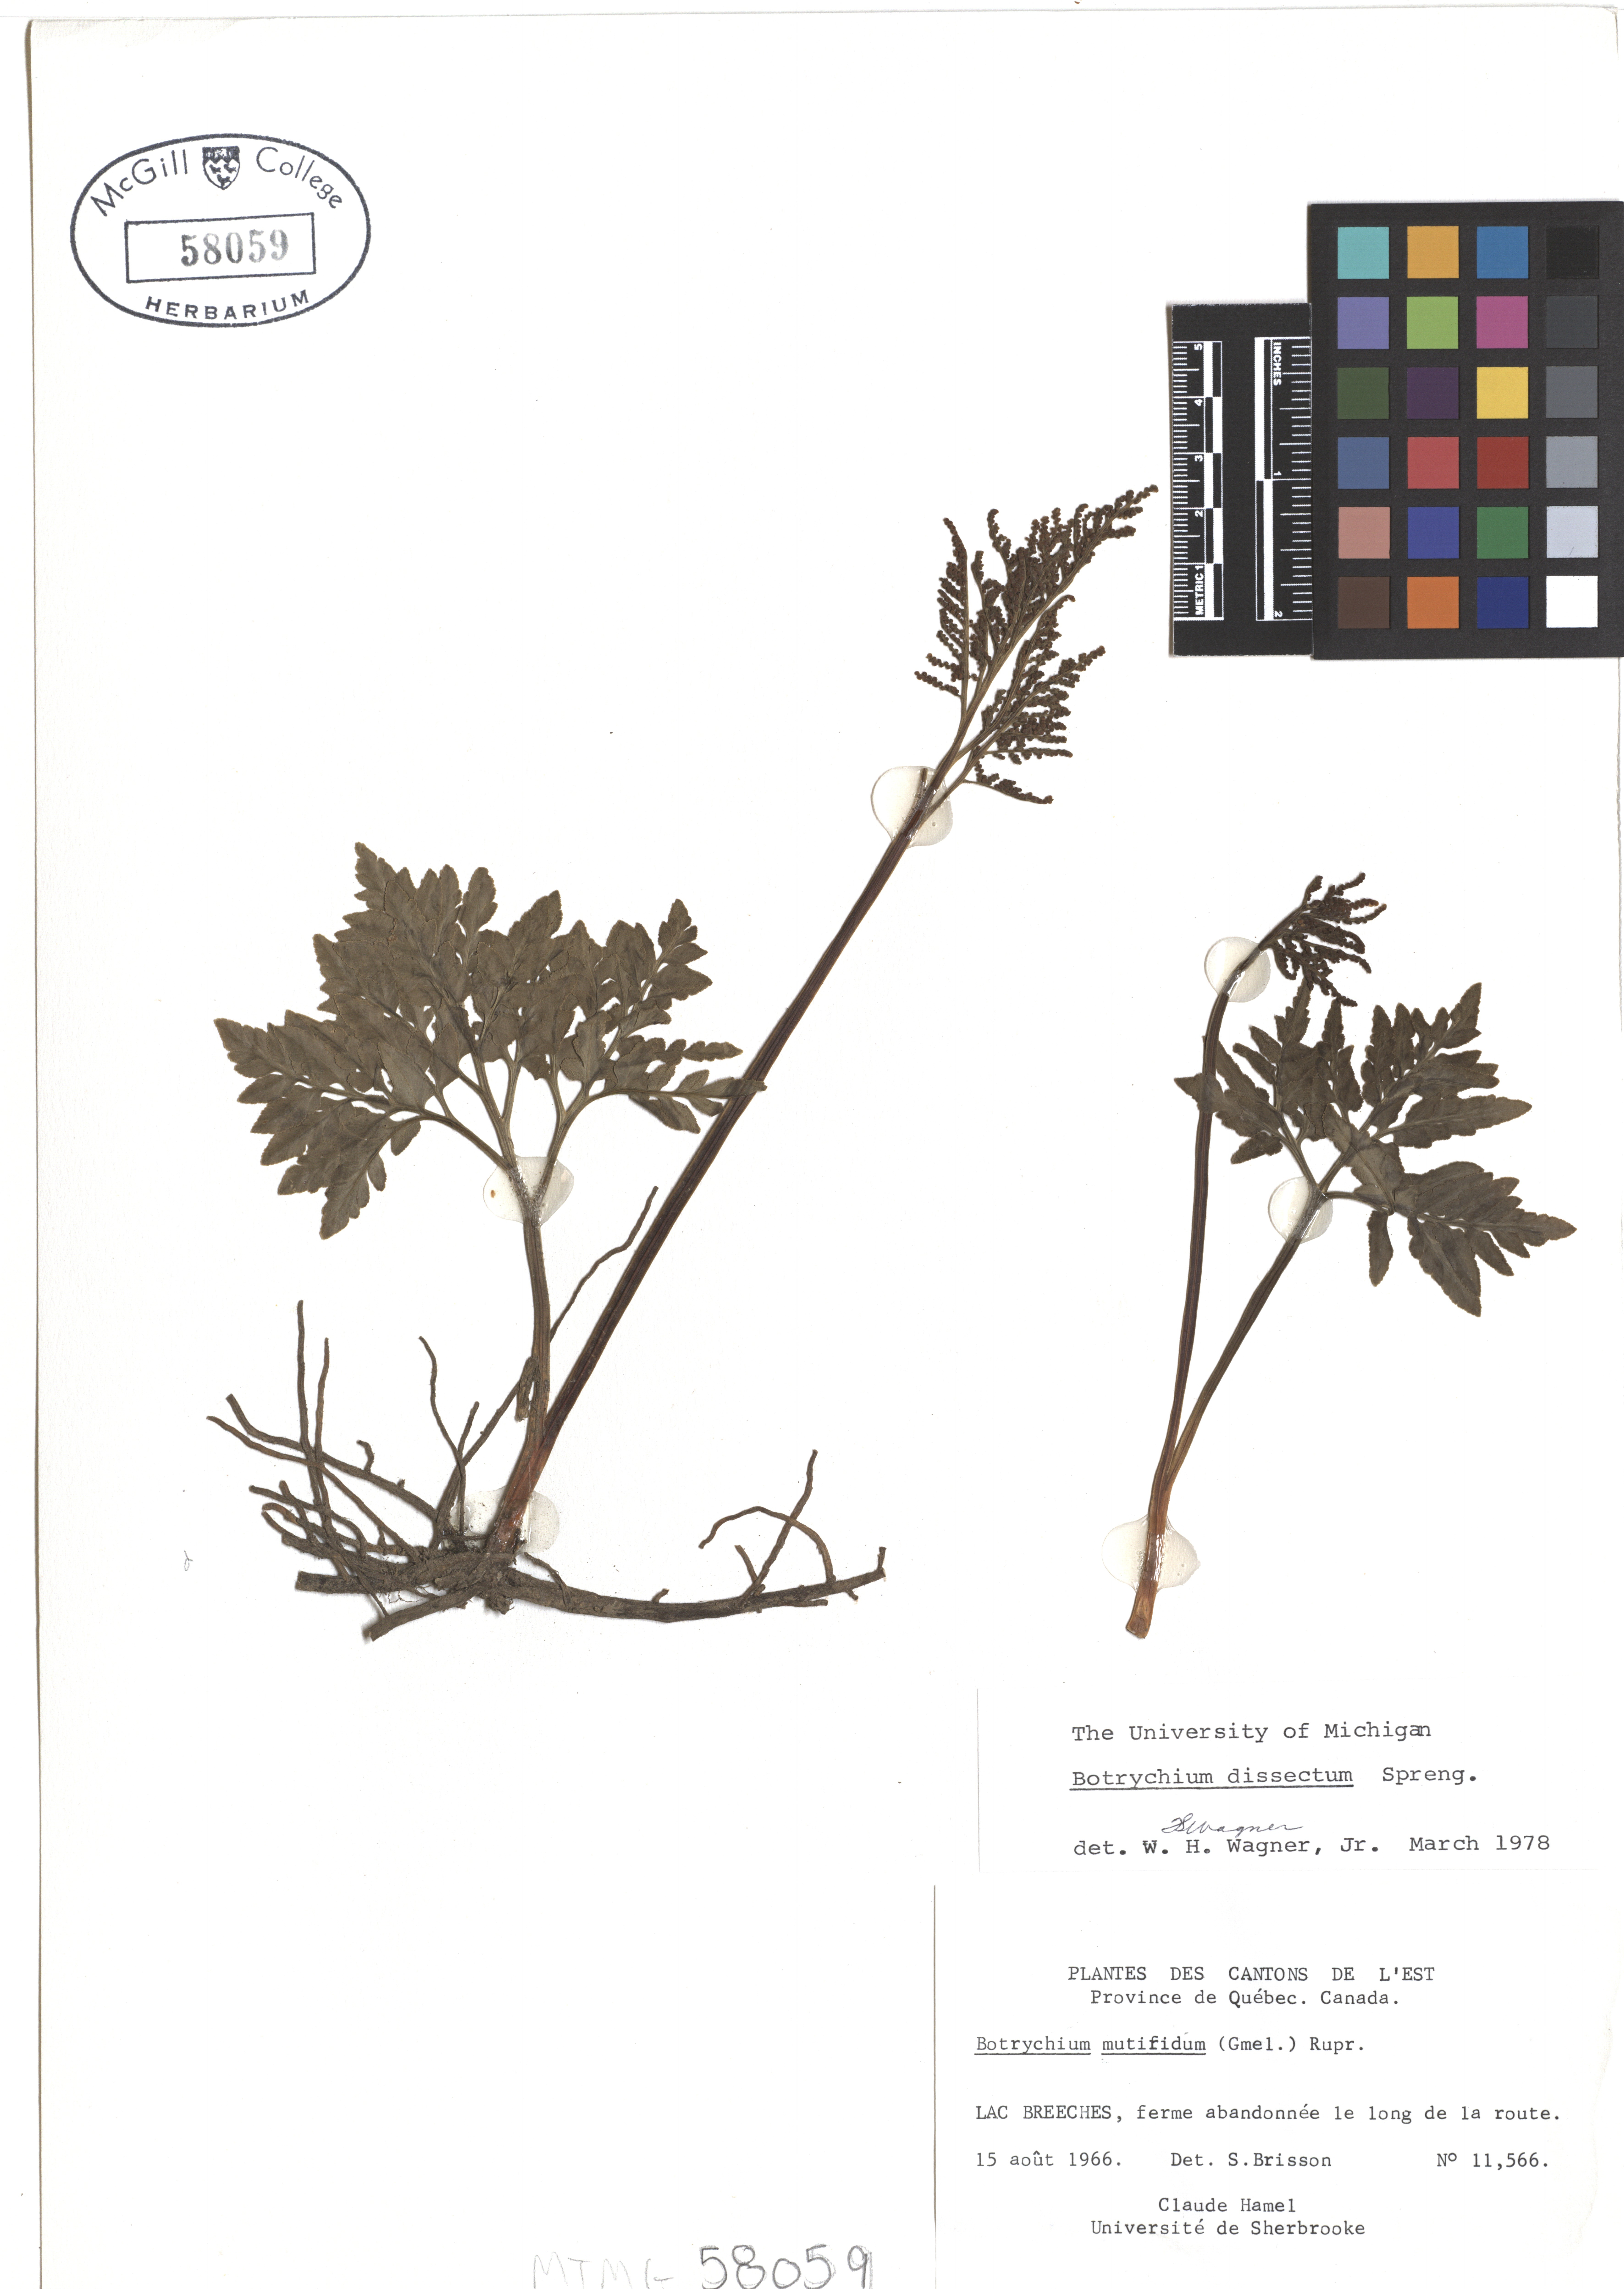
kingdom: Plantae
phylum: Tracheophyta
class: Polypodiopsida
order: Ophioglossales
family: Ophioglossaceae
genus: Sceptridium
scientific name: Sceptridium dissectum
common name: Cut-leaved grapefern
